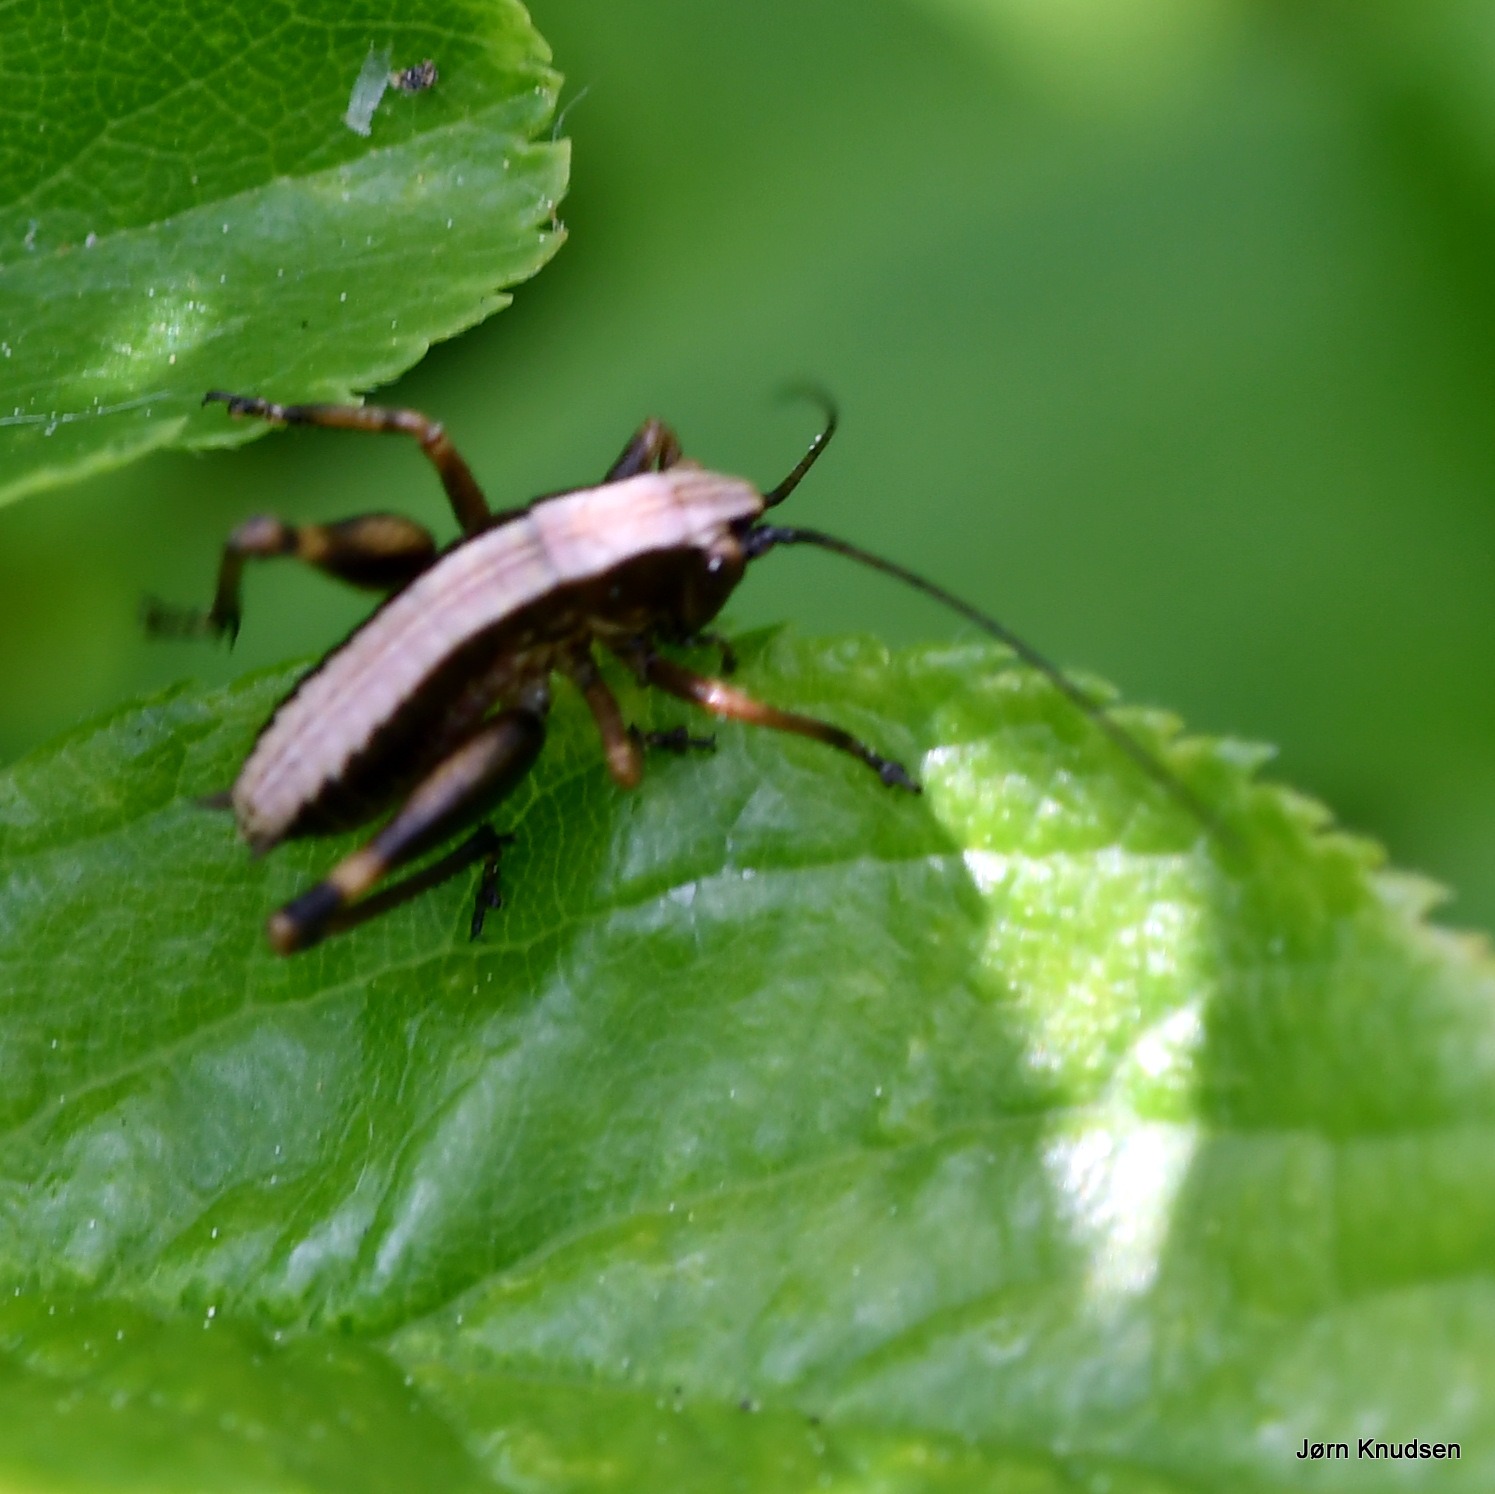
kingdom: Animalia
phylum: Arthropoda
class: Insecta
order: Orthoptera
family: Tettigoniidae
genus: Pholidoptera
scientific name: Pholidoptera griseoaptera
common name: Buskgræshoppe
